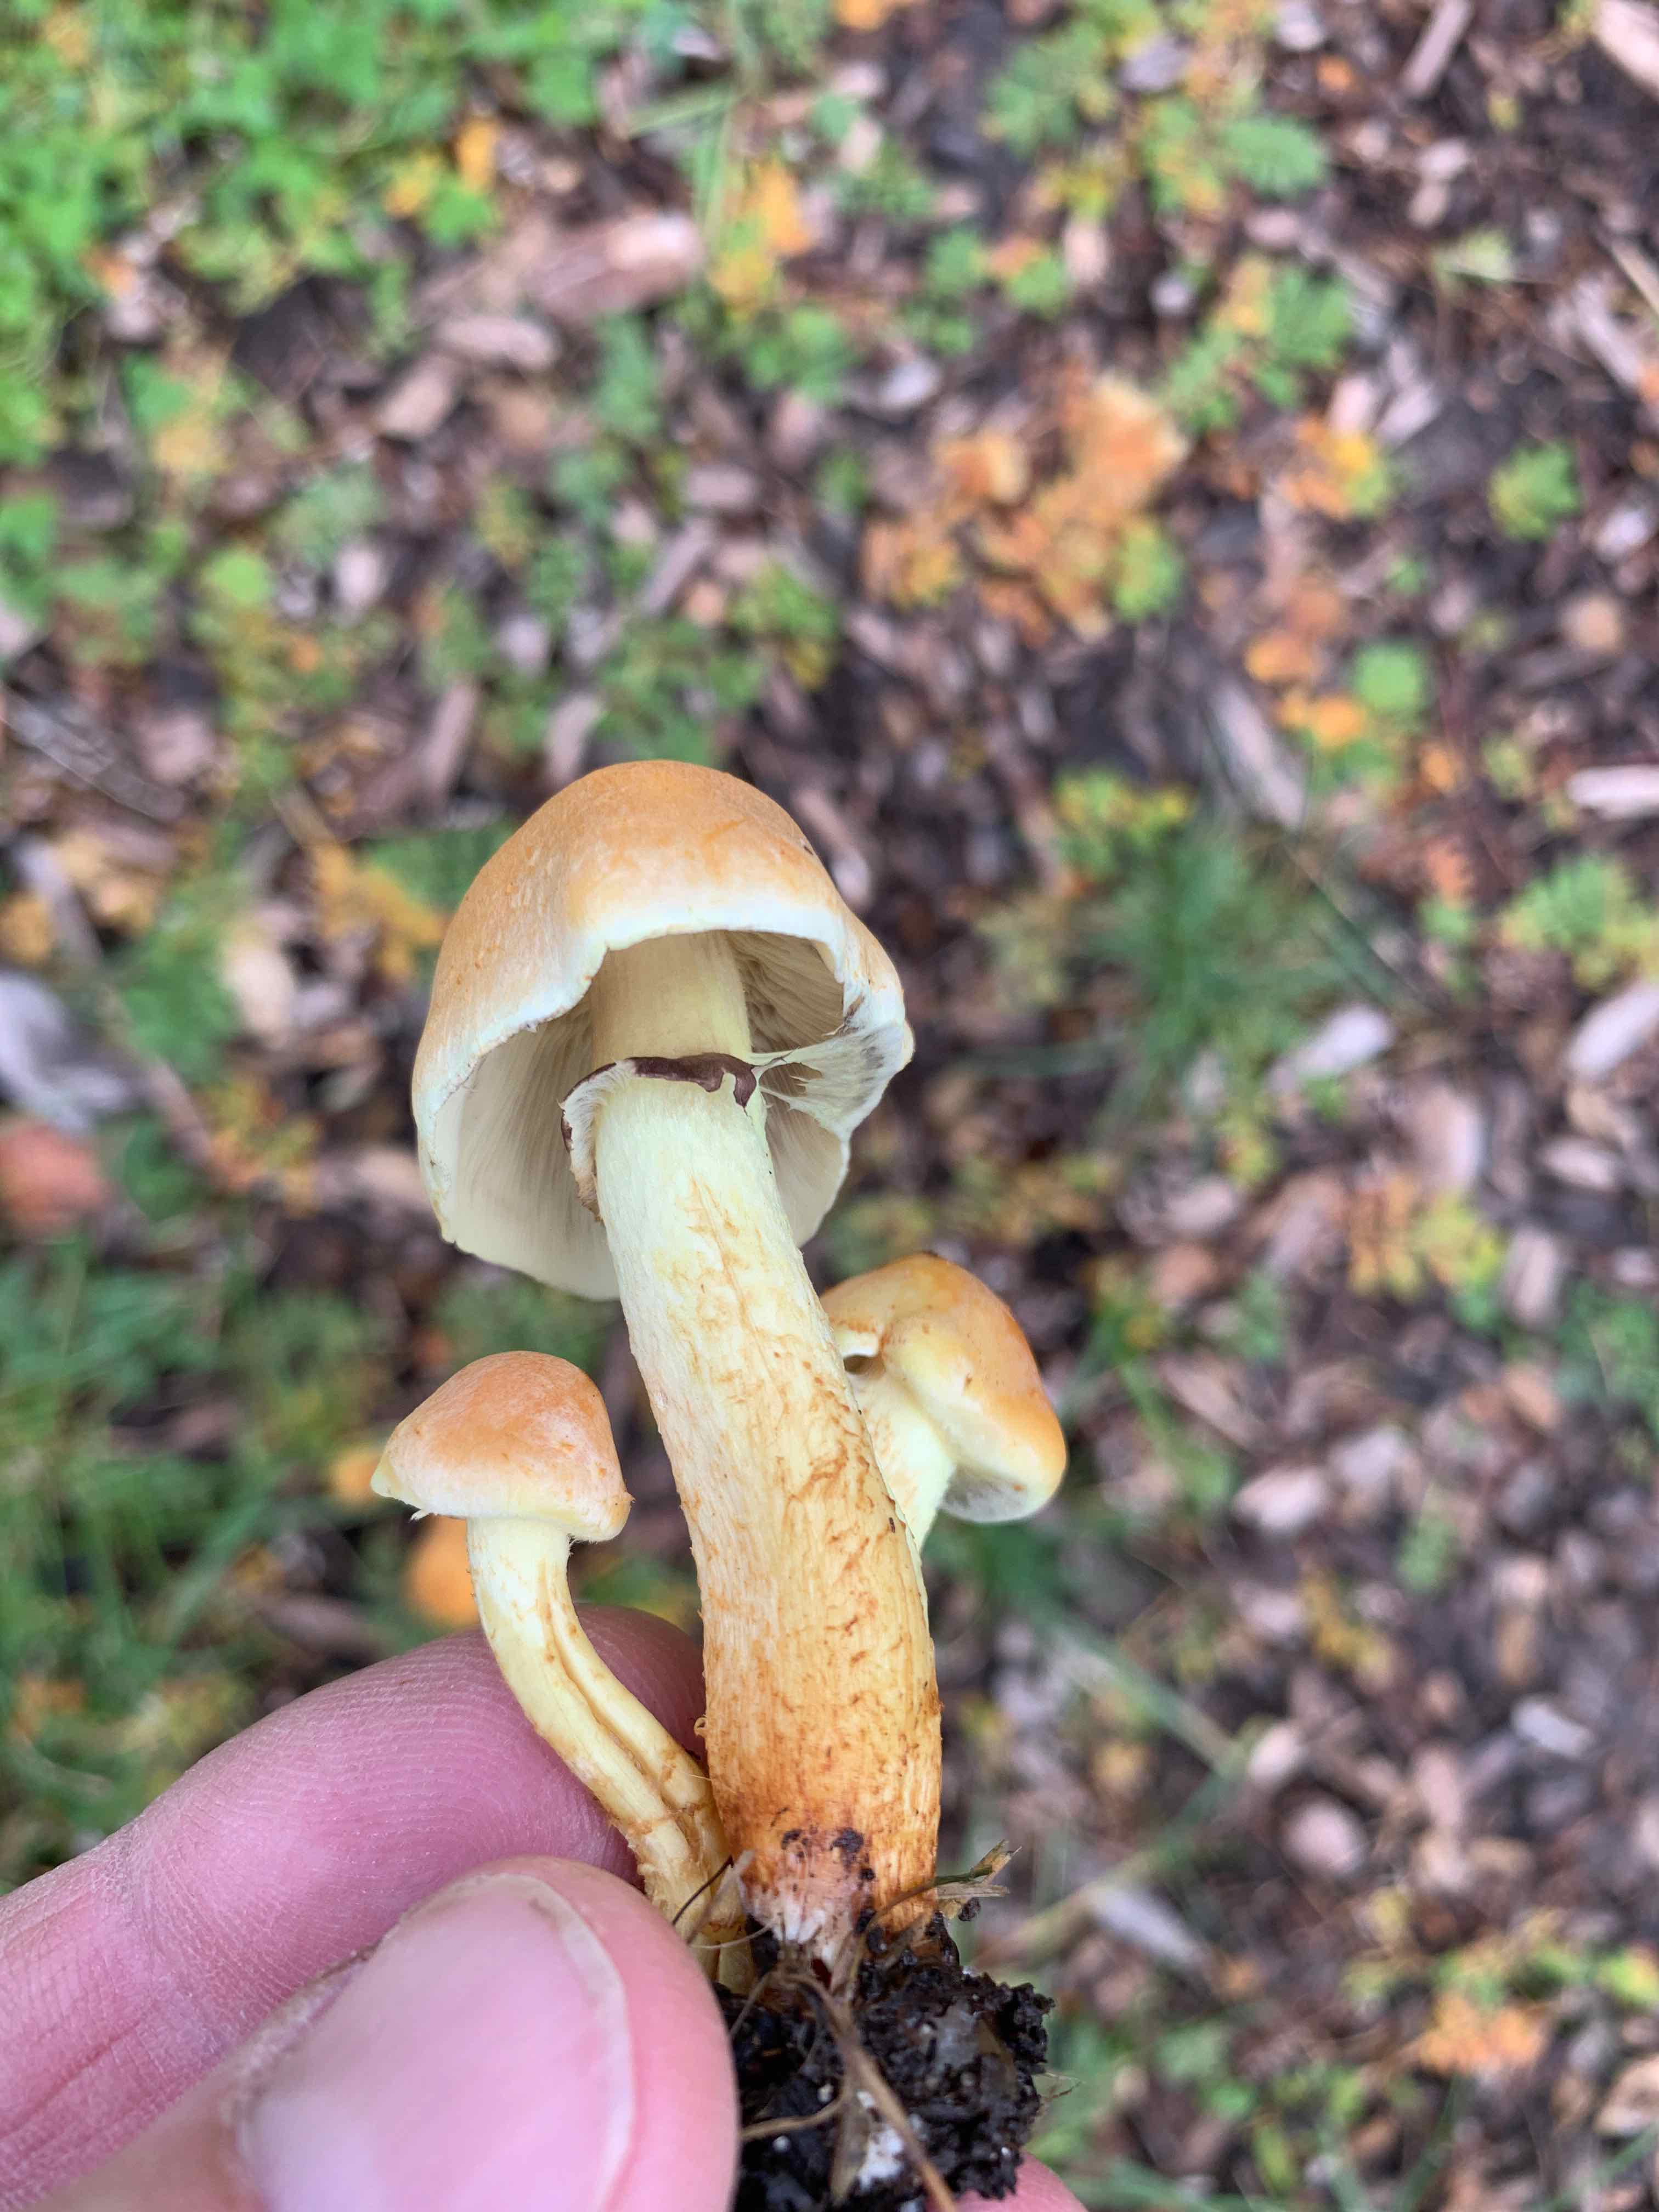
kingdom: Fungi
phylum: Basidiomycota
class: Agaricomycetes
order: Agaricales
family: Strophariaceae
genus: Hypholoma
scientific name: Hypholoma fasciculare
